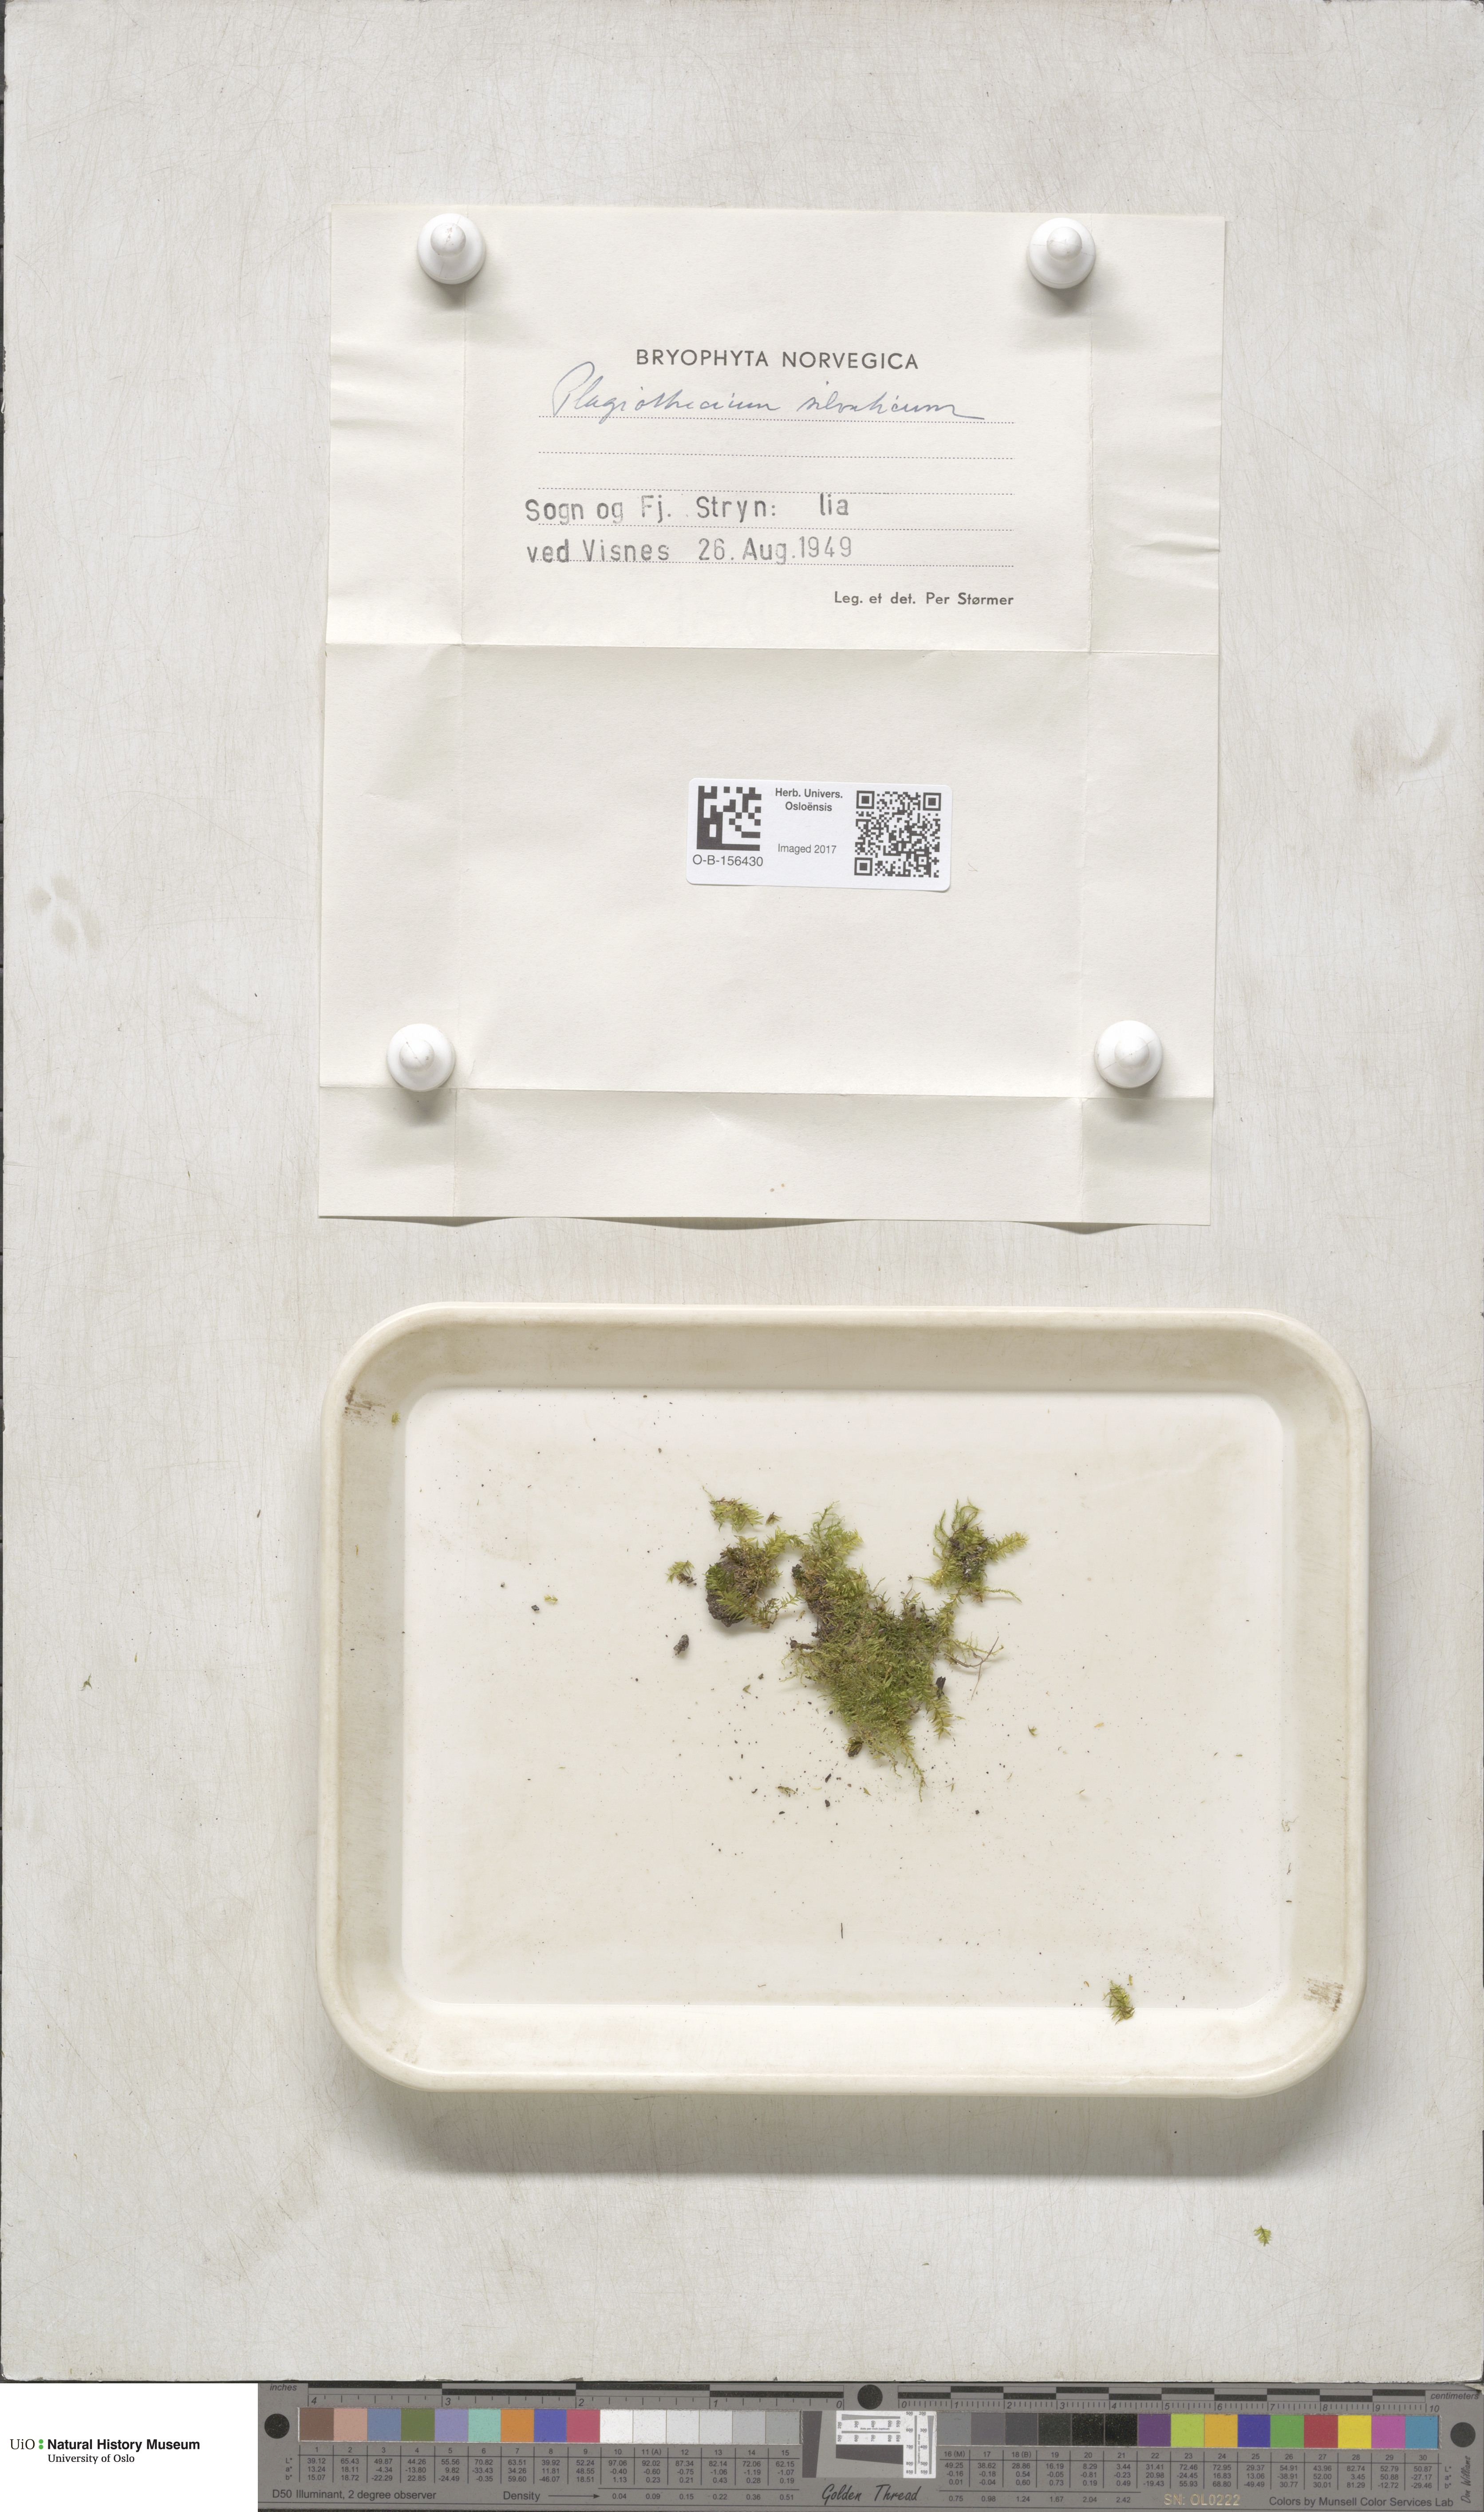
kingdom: Plantae
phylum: Bryophyta
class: Bryopsida
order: Hypnales
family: Plagiotheciaceae
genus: Plagiothecium
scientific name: Plagiothecium nemorale
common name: Woodsy silk-moss
